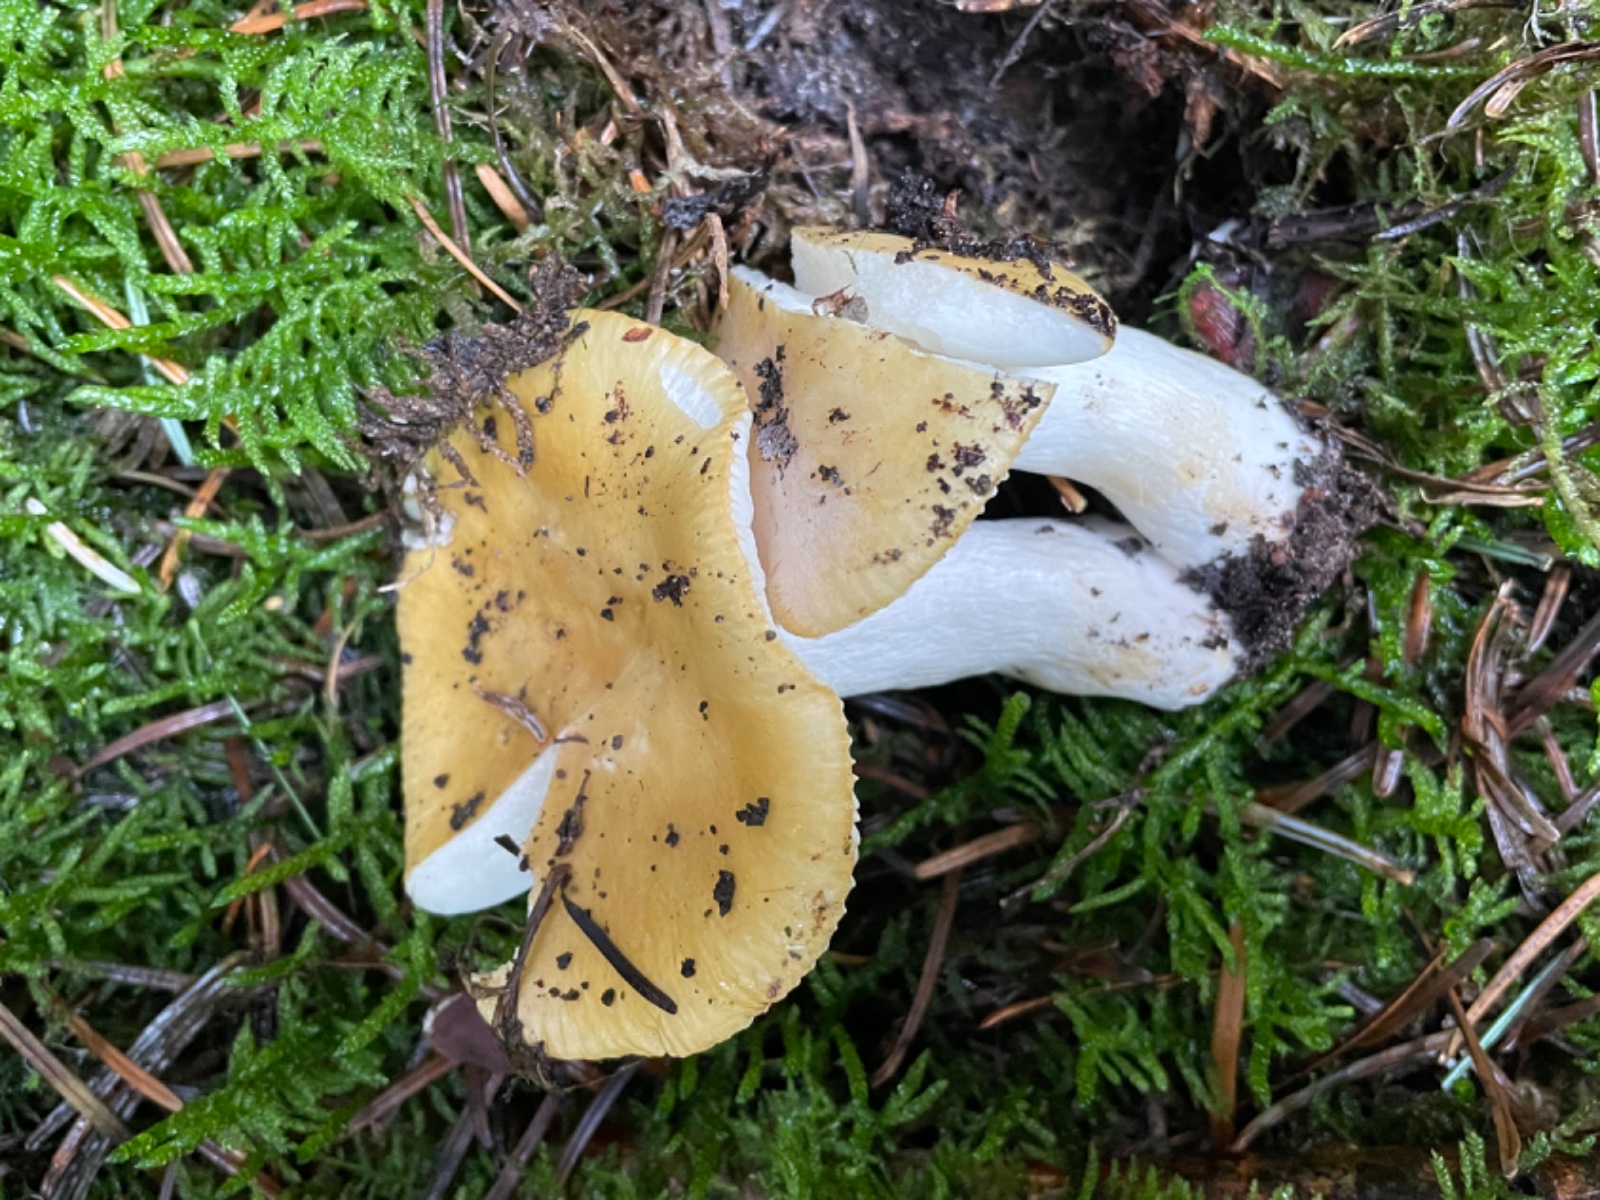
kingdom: Fungi
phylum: Basidiomycota
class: Agaricomycetes
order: Russulales
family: Russulaceae
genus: Russula
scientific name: Russula ochroleuca
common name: okkergul skørhat
